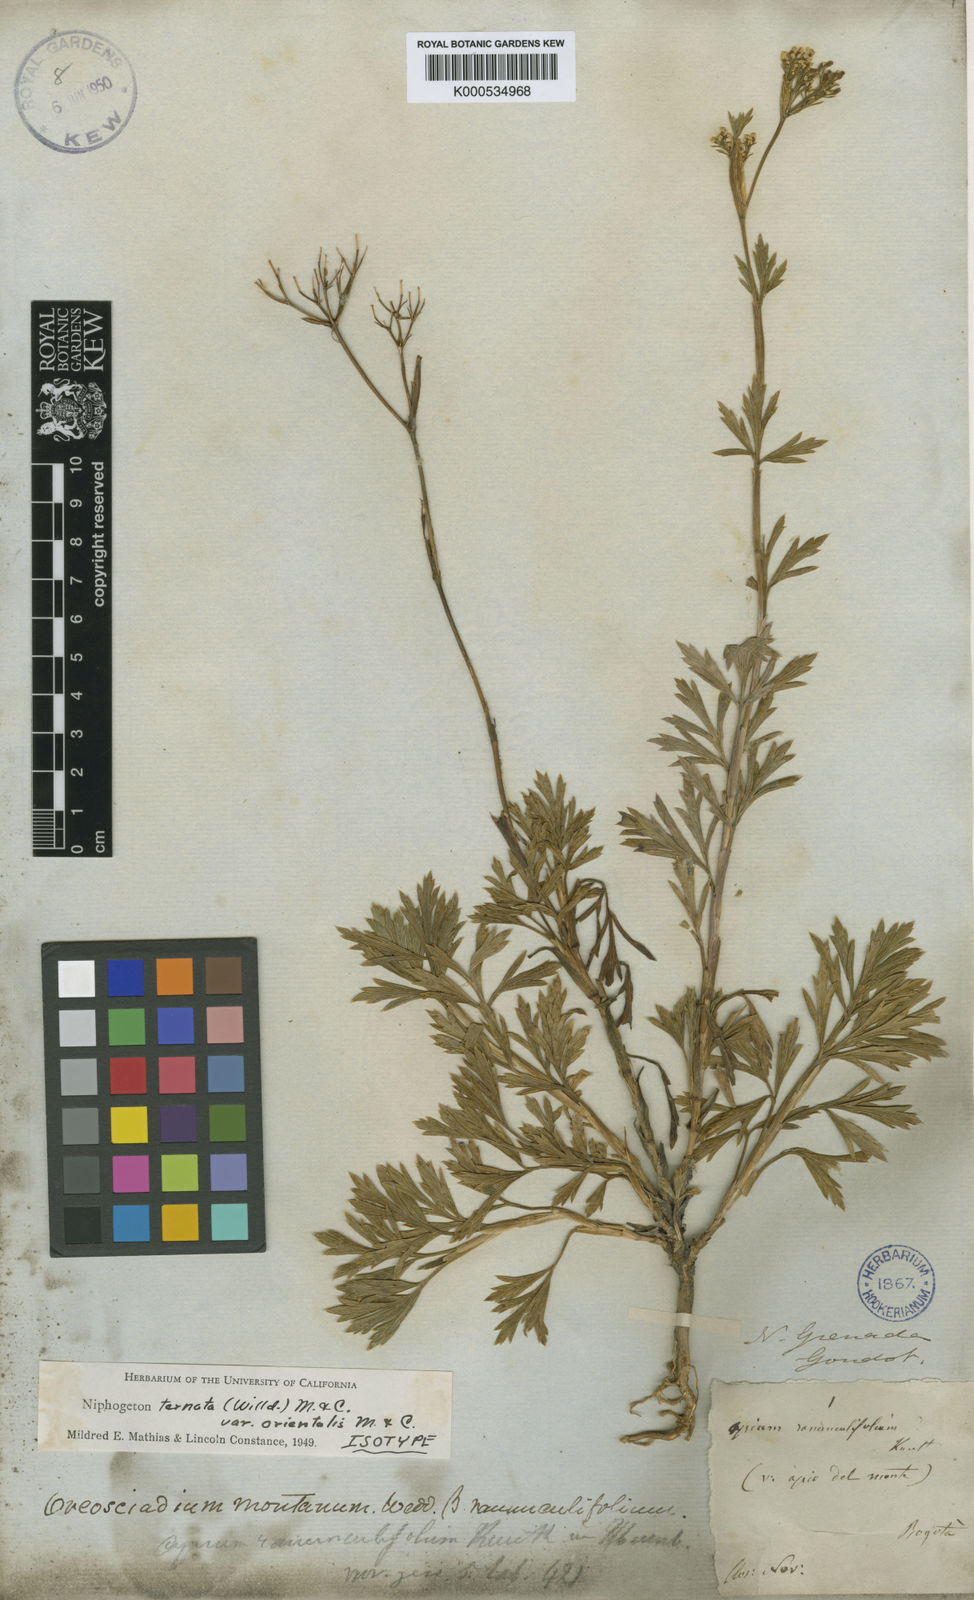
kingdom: Plantae
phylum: Tracheophyta
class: Magnoliopsida
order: Apiales
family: Apiaceae
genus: Niphogeton
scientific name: Niphogeton ternata
